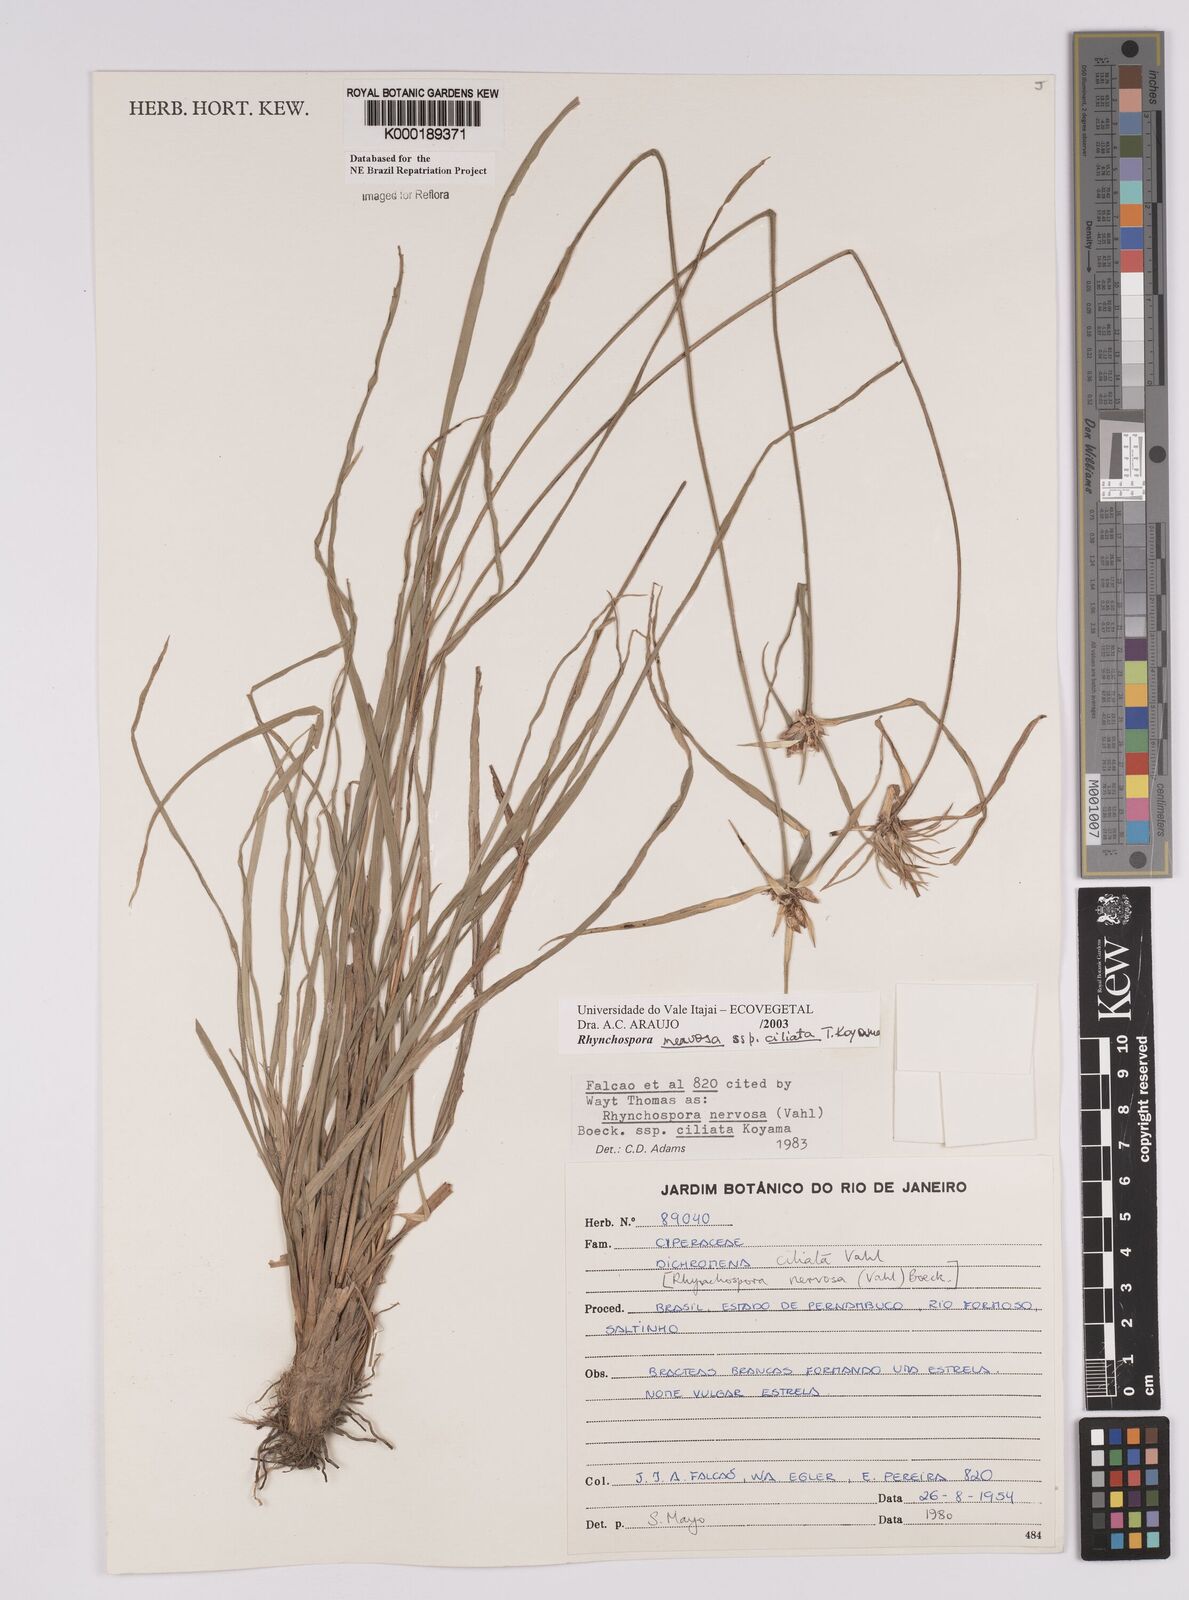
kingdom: Plantae
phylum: Tracheophyta
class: Liliopsida
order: Poales
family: Cyperaceae
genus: Rhynchospora
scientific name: Rhynchospora pura
